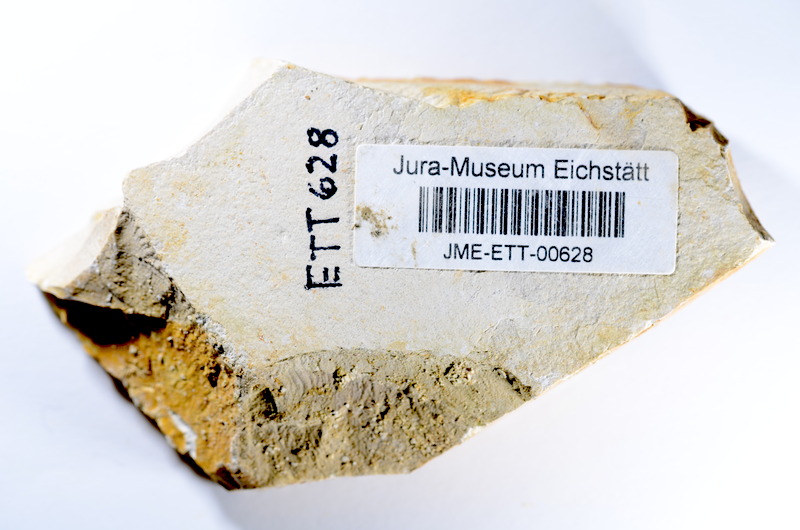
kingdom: Animalia
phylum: Chordata
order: Salmoniformes
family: Orthogonikleithridae
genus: Orthogonikleithrus
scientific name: Orthogonikleithrus hoelli
